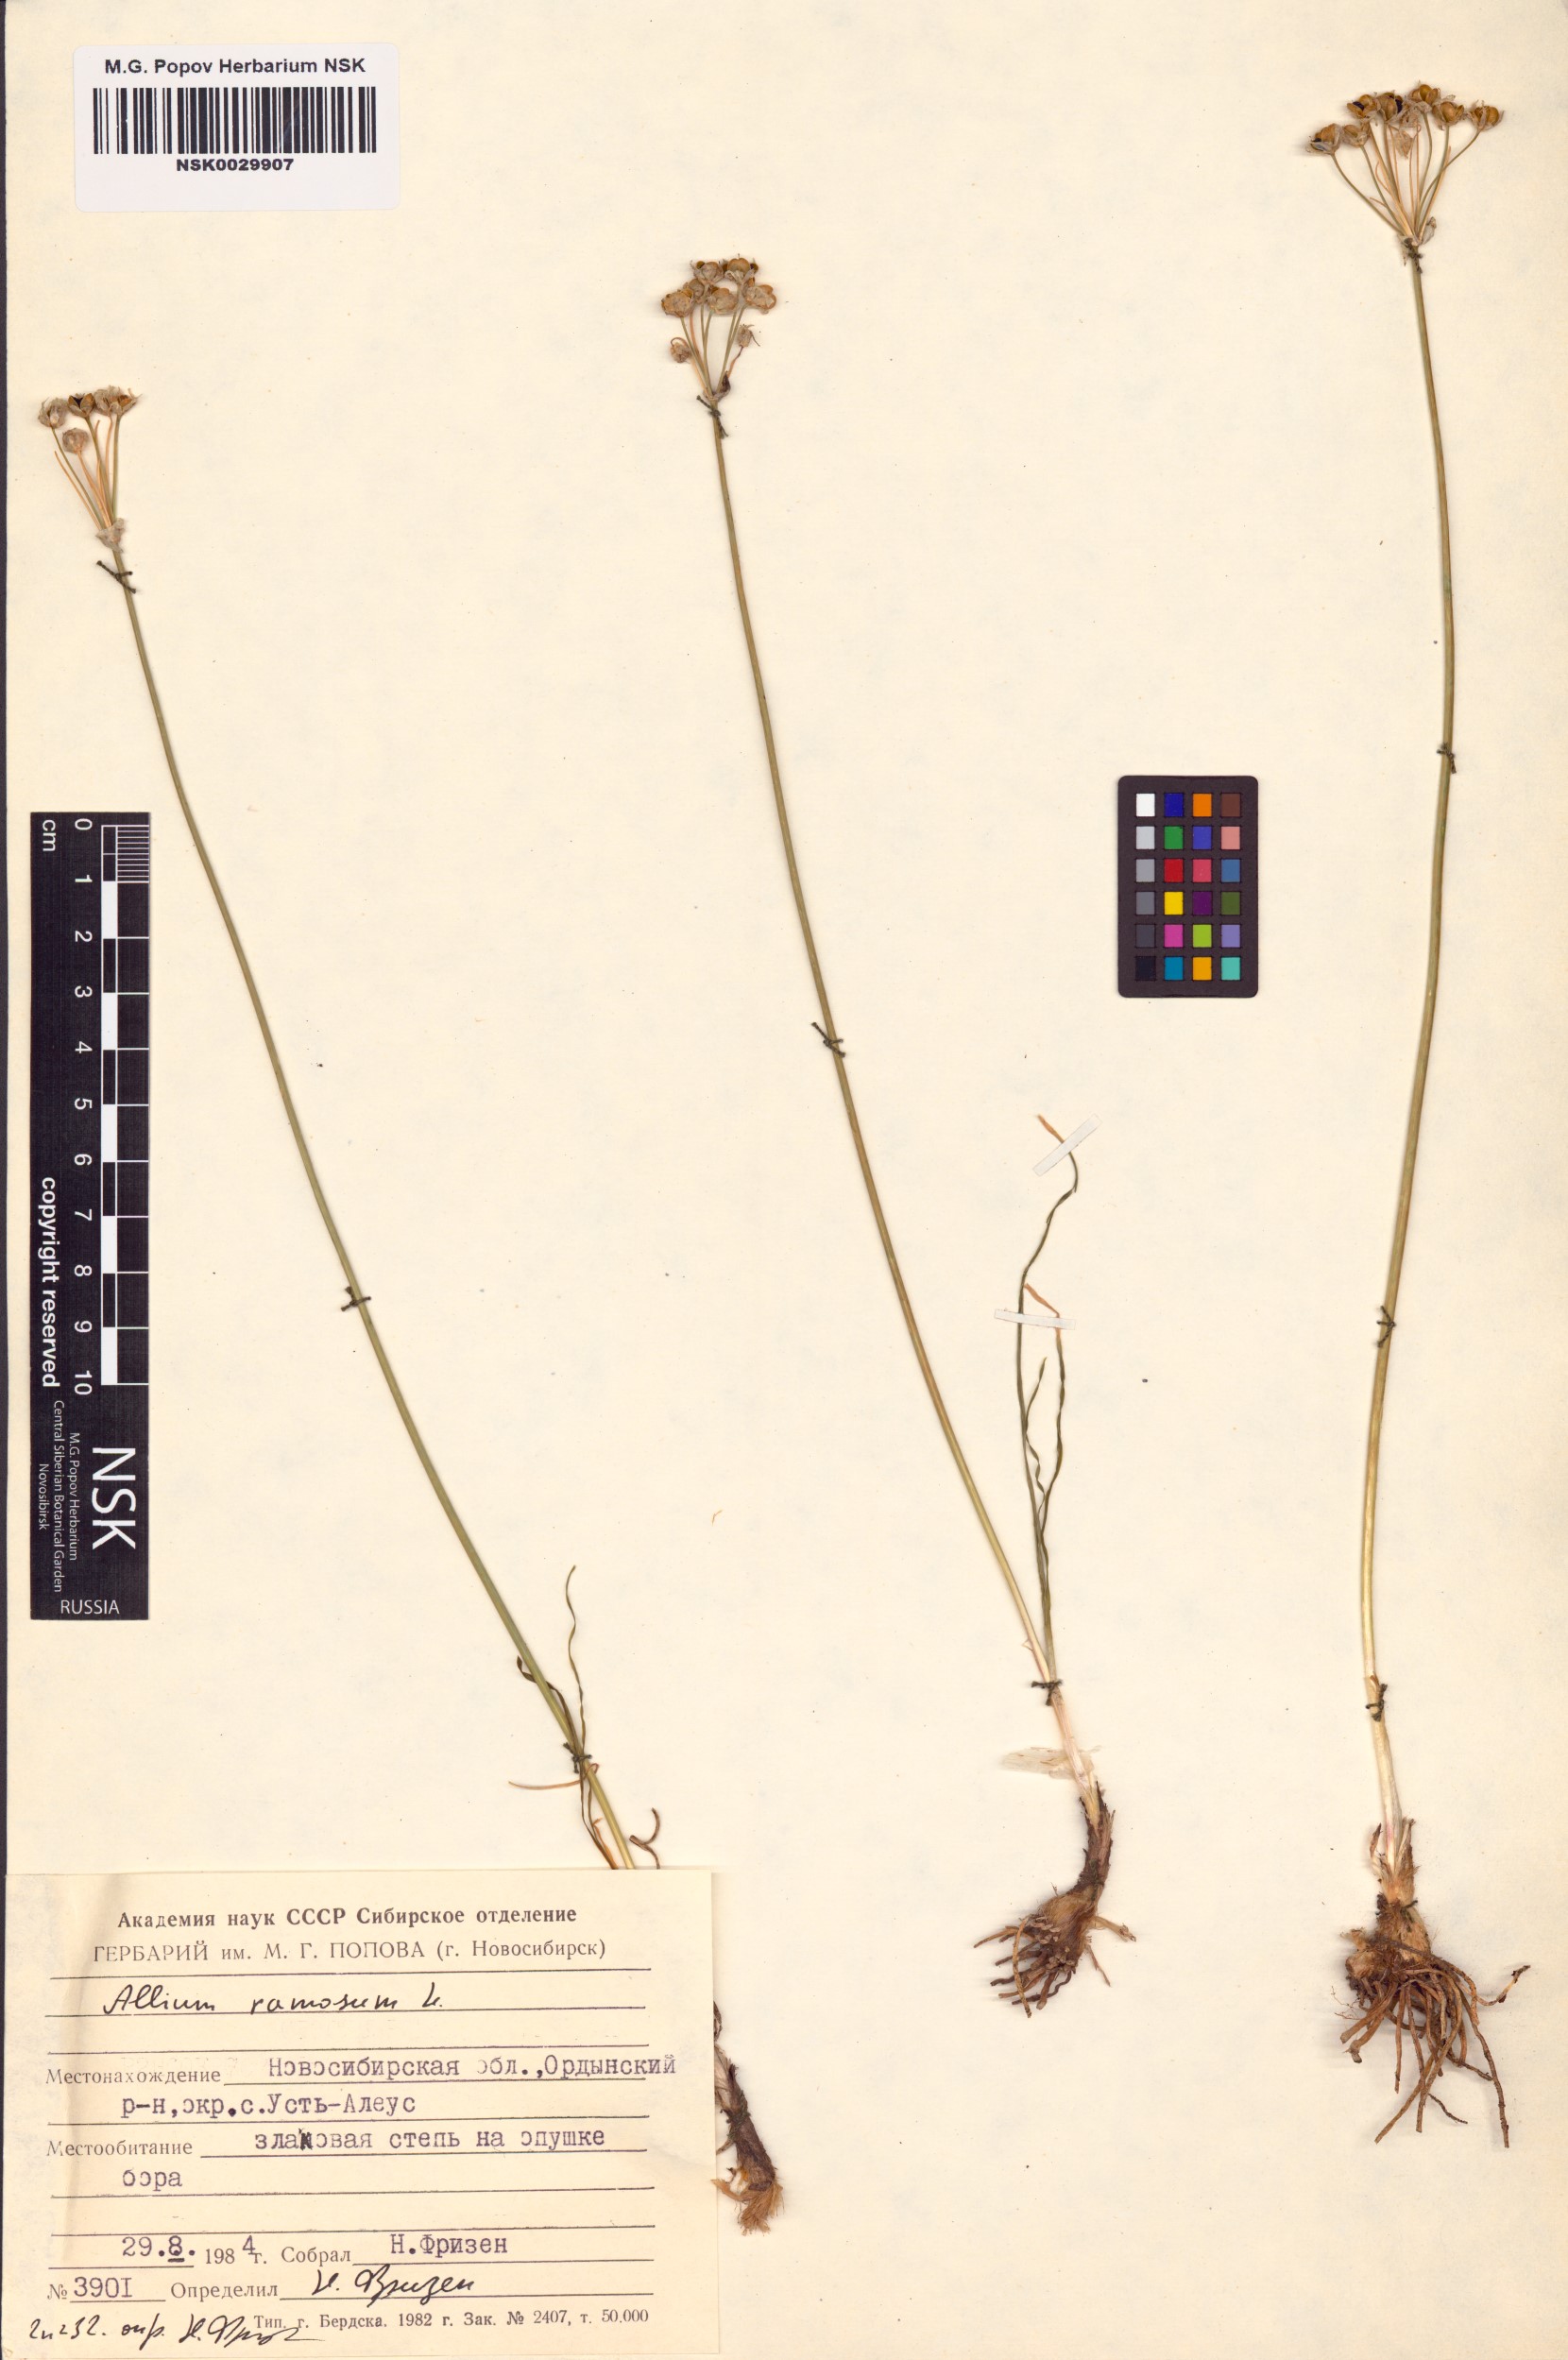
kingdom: Plantae
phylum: Tracheophyta
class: Liliopsida
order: Asparagales
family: Amaryllidaceae
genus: Allium
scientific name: Allium ramosum
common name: Fragrant garlic
